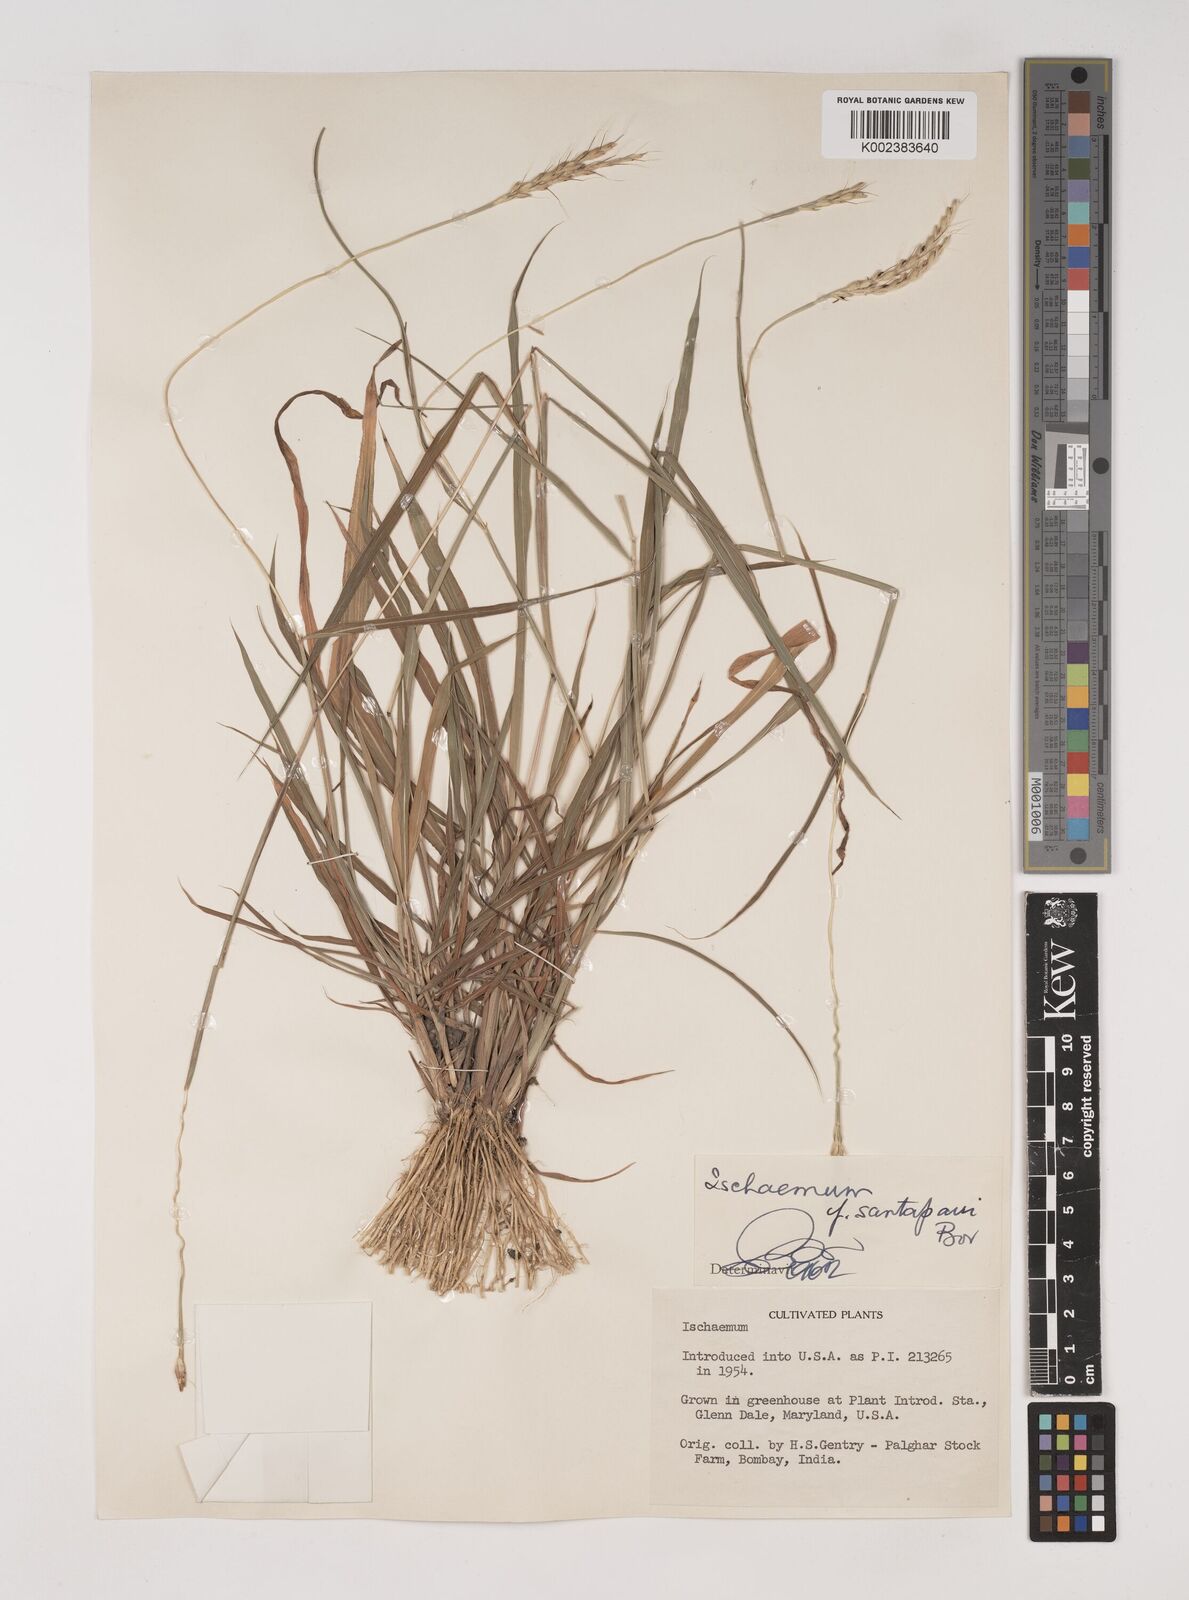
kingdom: Plantae
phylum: Tracheophyta
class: Liliopsida
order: Poales
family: Poaceae
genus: Ischaemum
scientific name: Ischaemum
